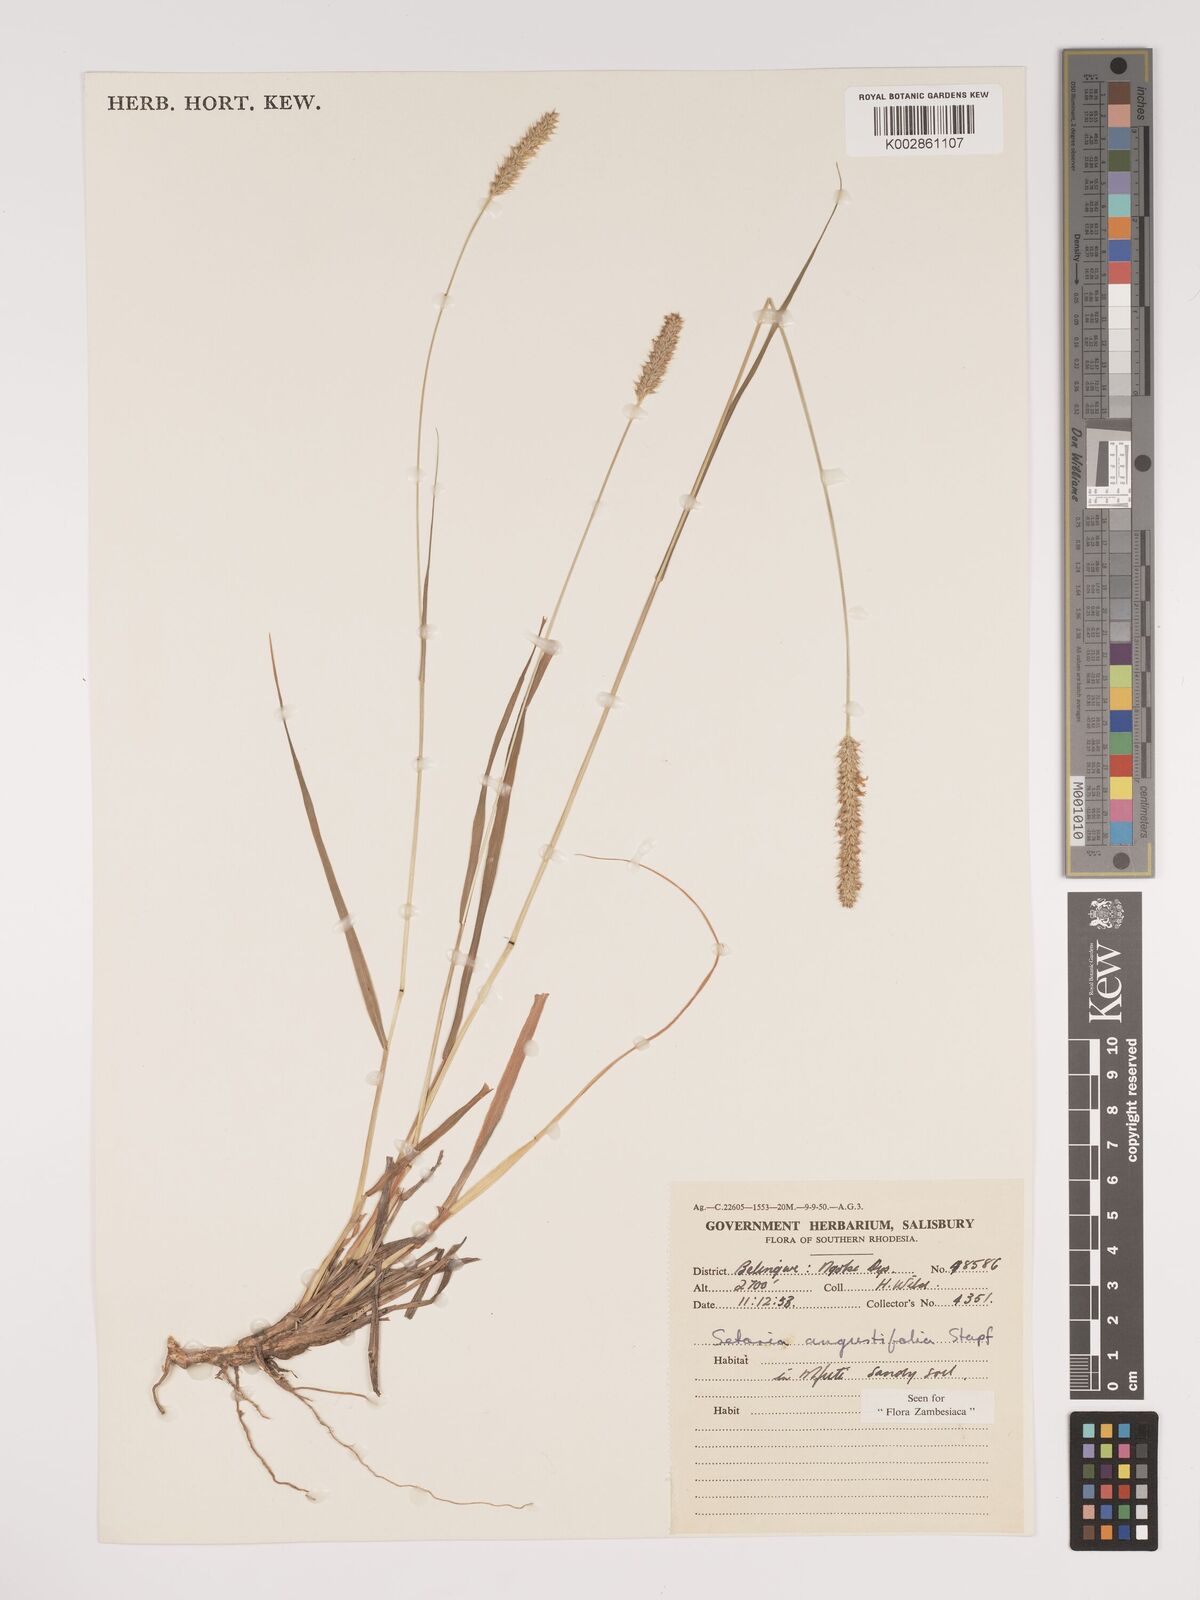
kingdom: Plantae
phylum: Tracheophyta
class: Liliopsida
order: Poales
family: Poaceae
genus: Setaria
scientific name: Setaria sphacelata
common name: African bristlegrass
